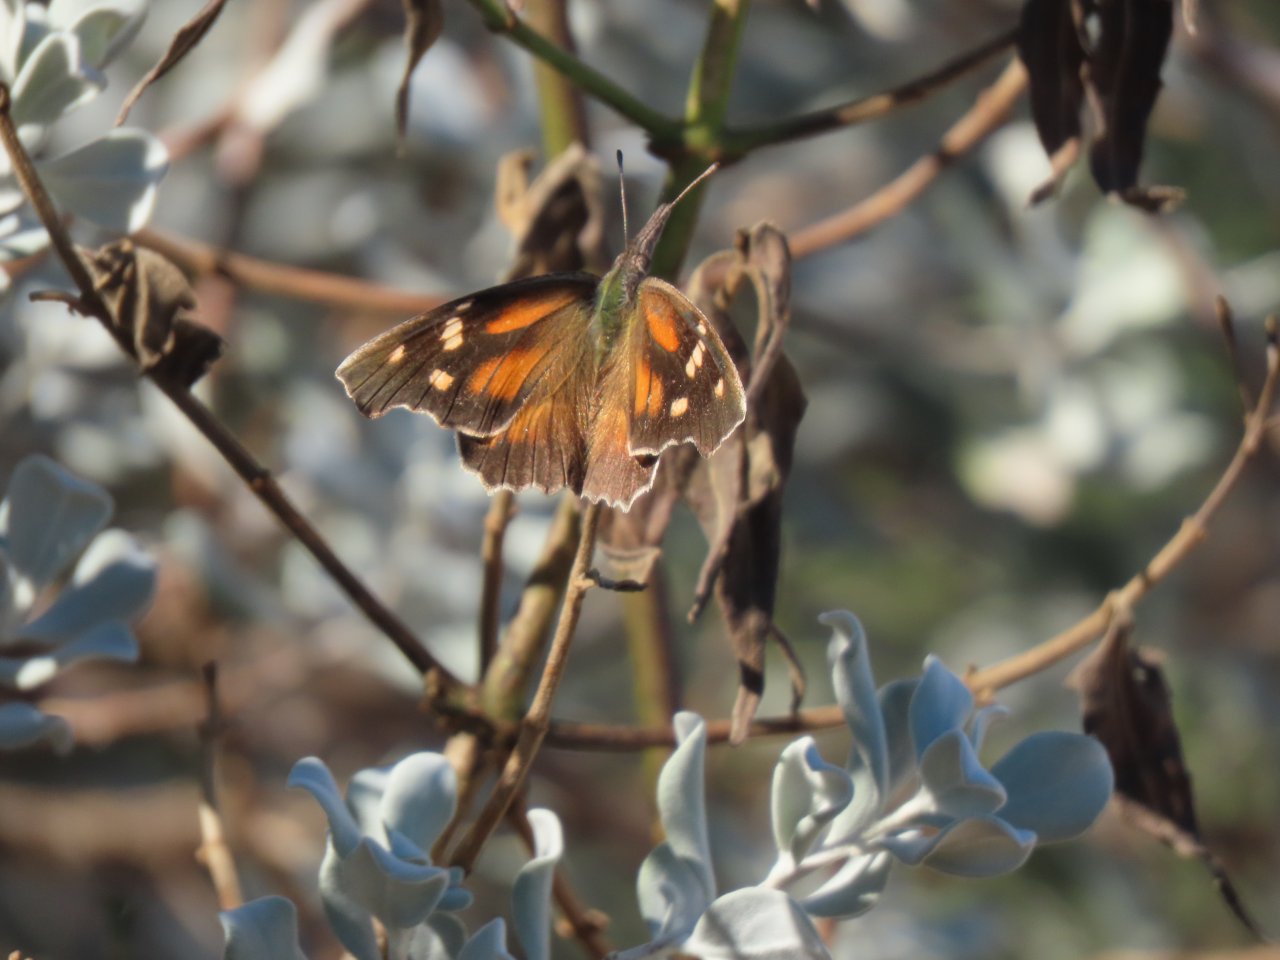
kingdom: Animalia
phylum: Arthropoda
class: Insecta
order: Lepidoptera
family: Nymphalidae
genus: Libytheana
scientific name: Libytheana carinenta
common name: American Snout
